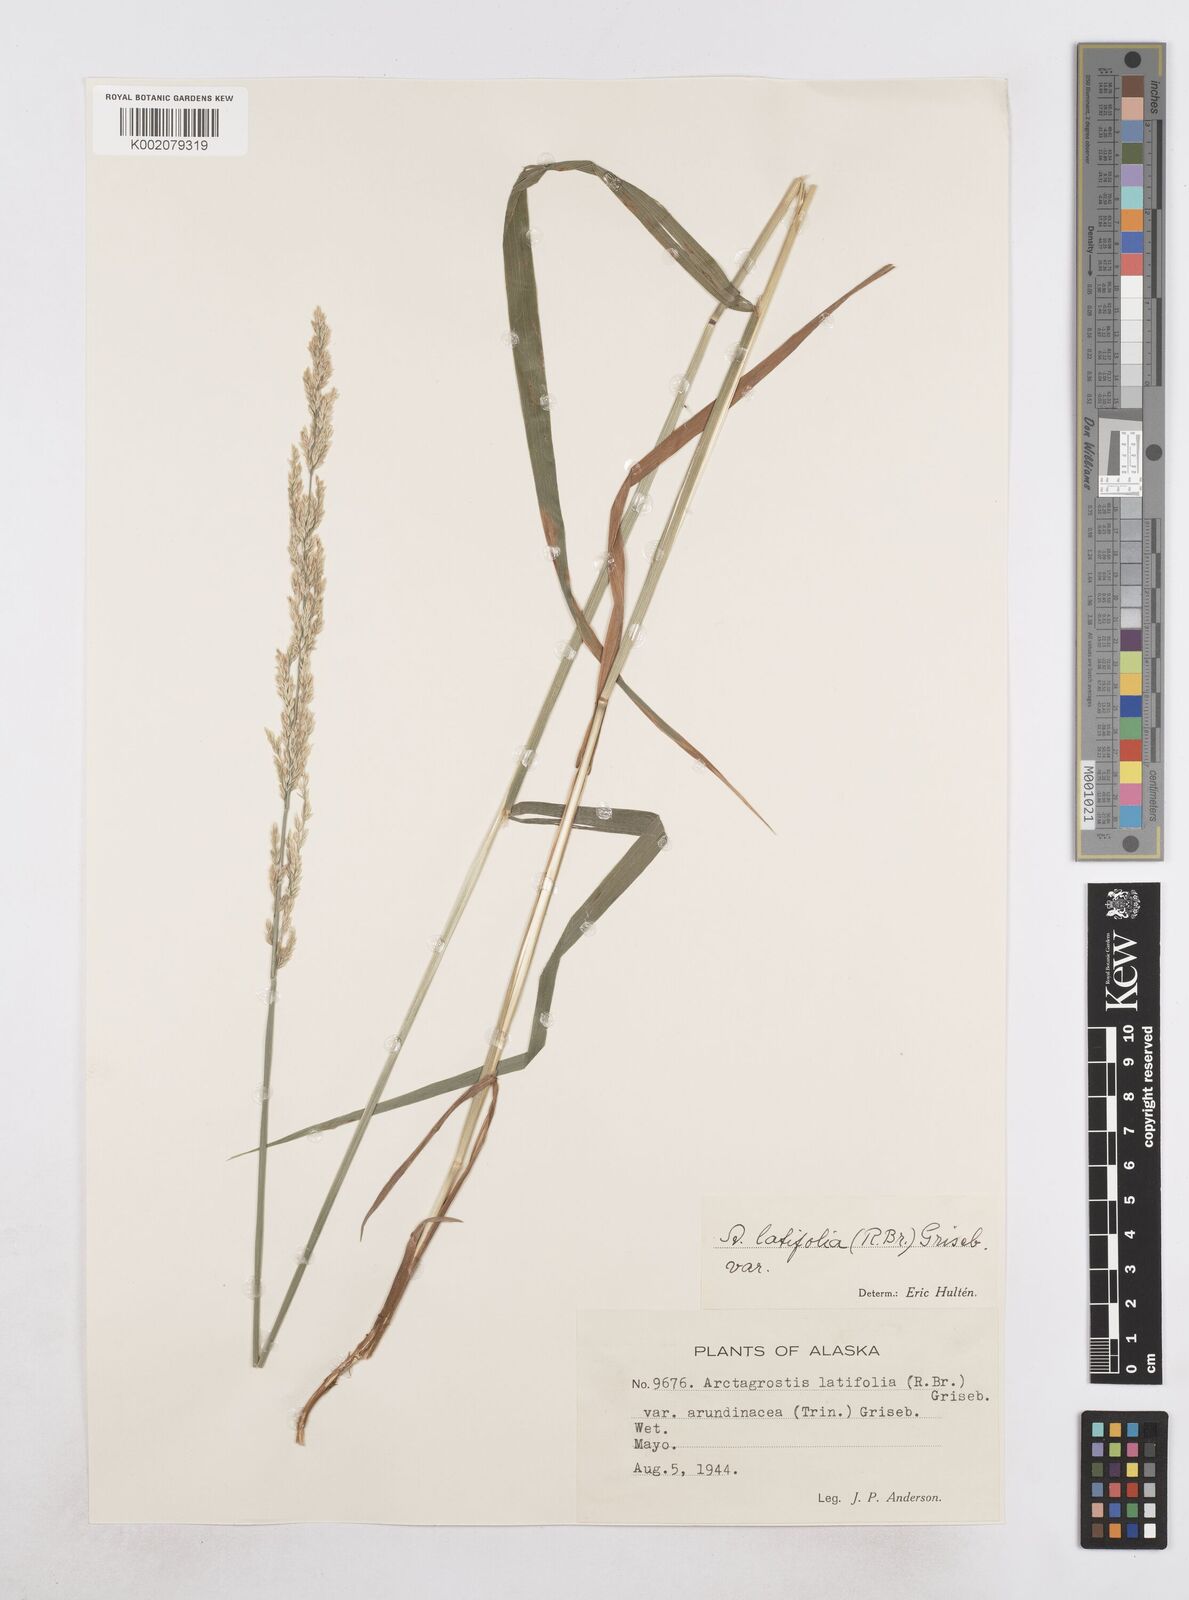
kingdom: Plantae
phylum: Tracheophyta
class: Liliopsida
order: Poales
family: Poaceae
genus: Arctagrostis
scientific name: Arctagrostis arundinacea
